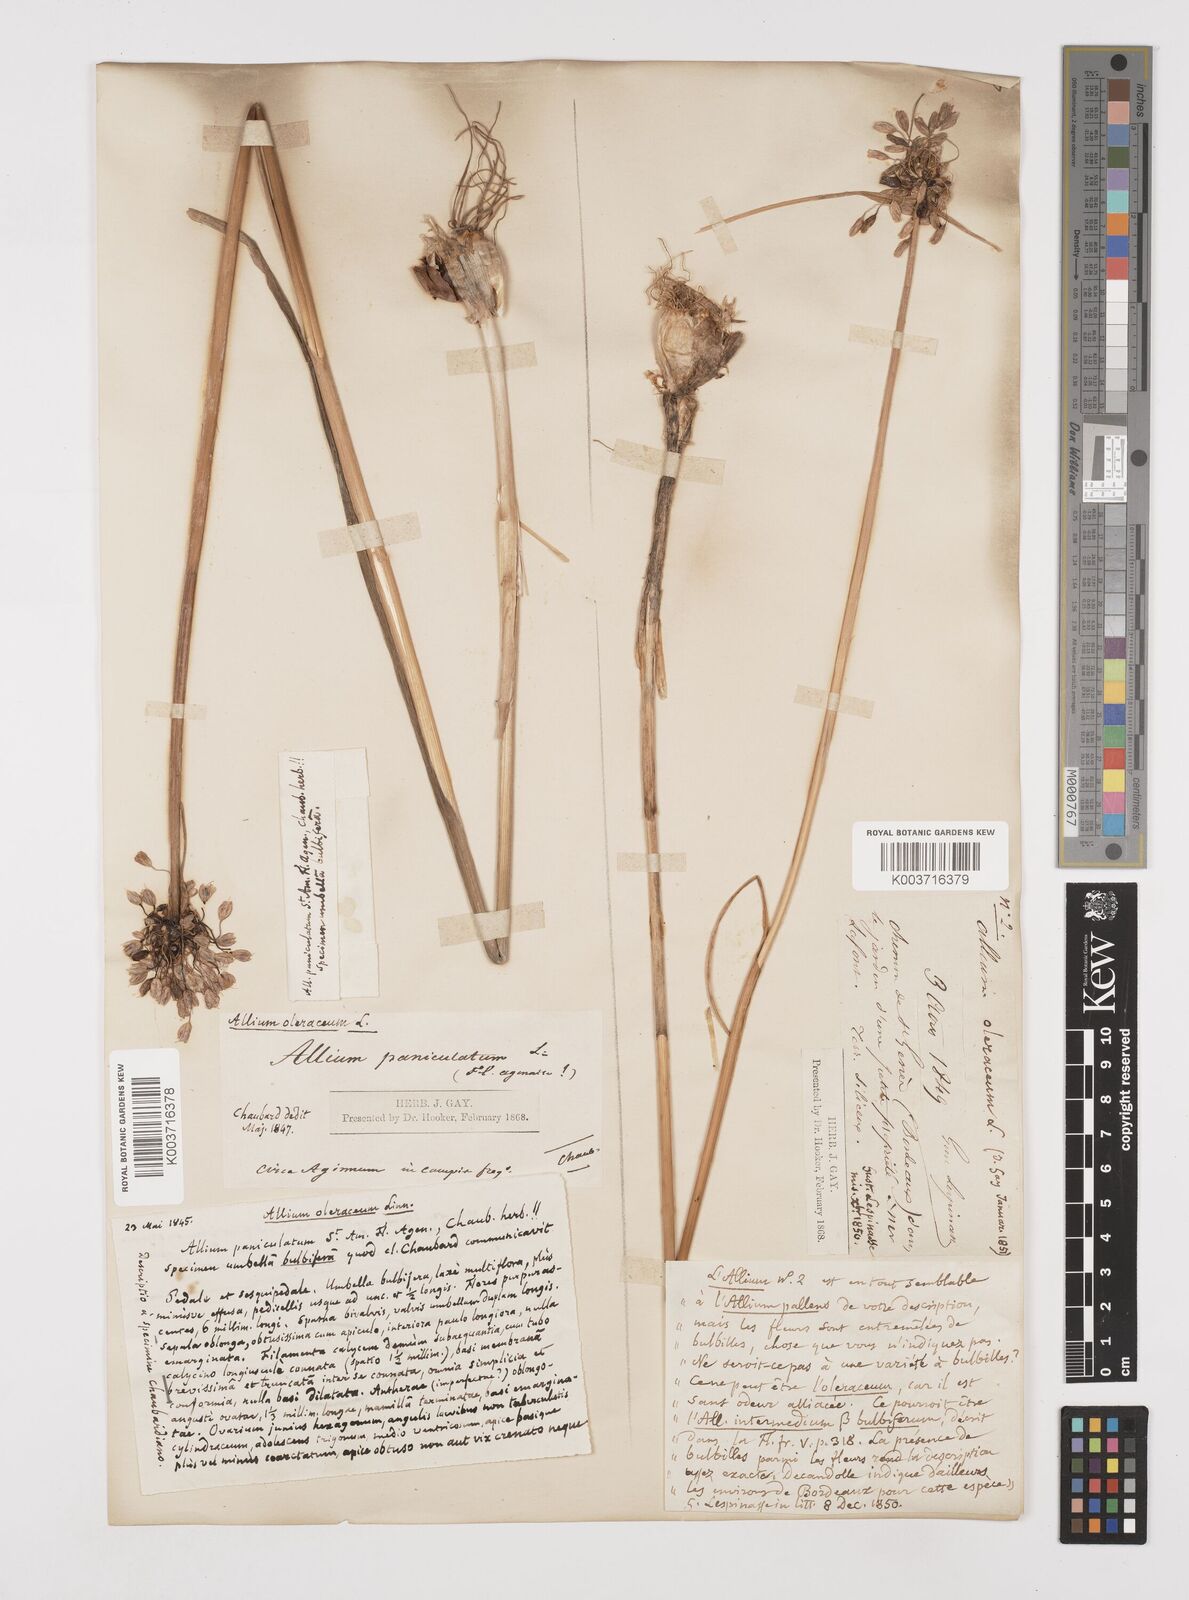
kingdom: Plantae
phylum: Tracheophyta
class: Liliopsida
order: Asparagales
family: Amaryllidaceae
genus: Allium
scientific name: Allium oleraceum
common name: Field garlic
